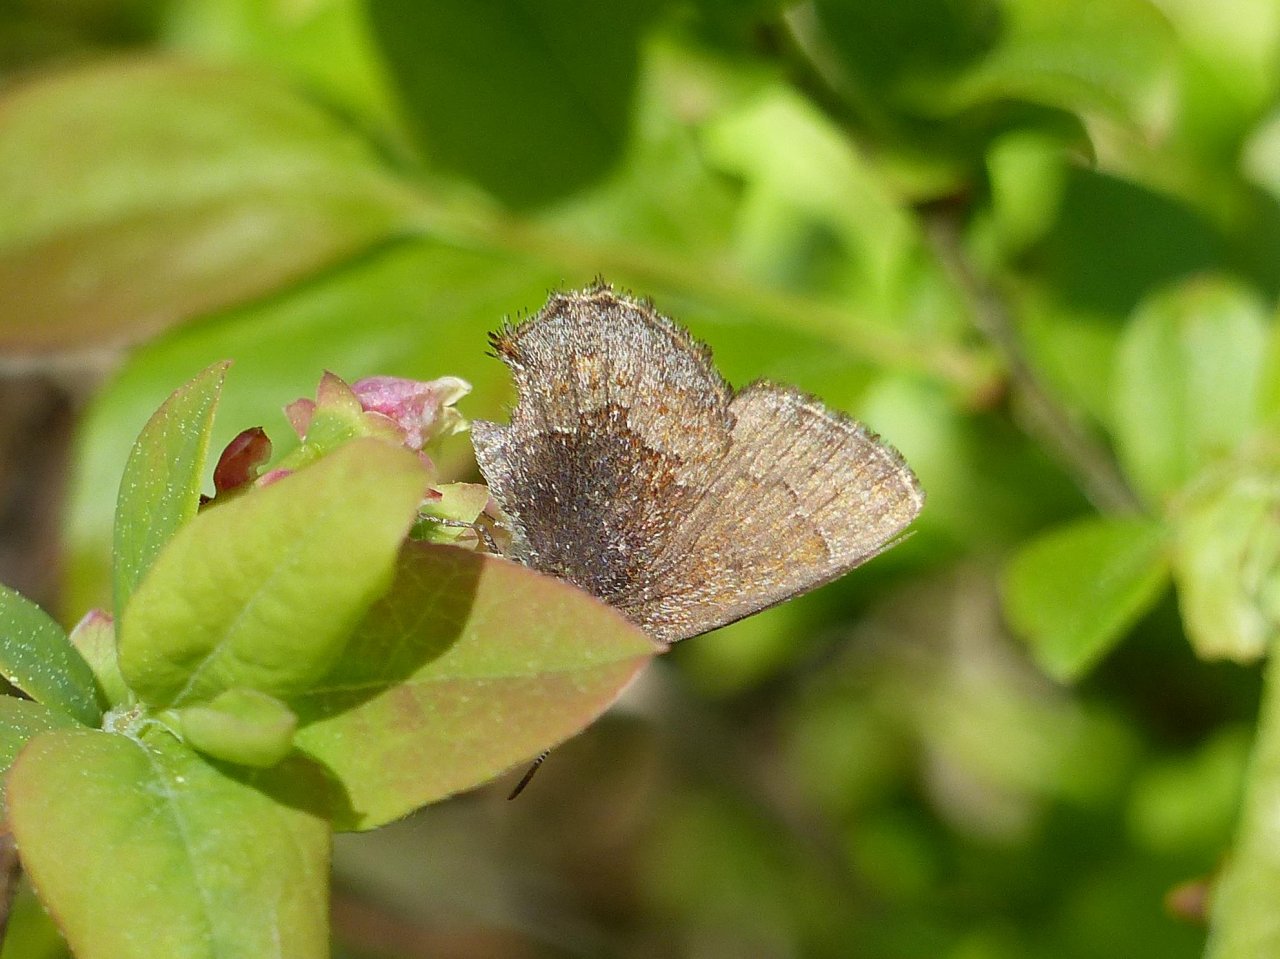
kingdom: Animalia
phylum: Arthropoda
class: Insecta
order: Lepidoptera
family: Lycaenidae
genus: Callophrys
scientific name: Callophrys polios
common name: Hoary Elfin
